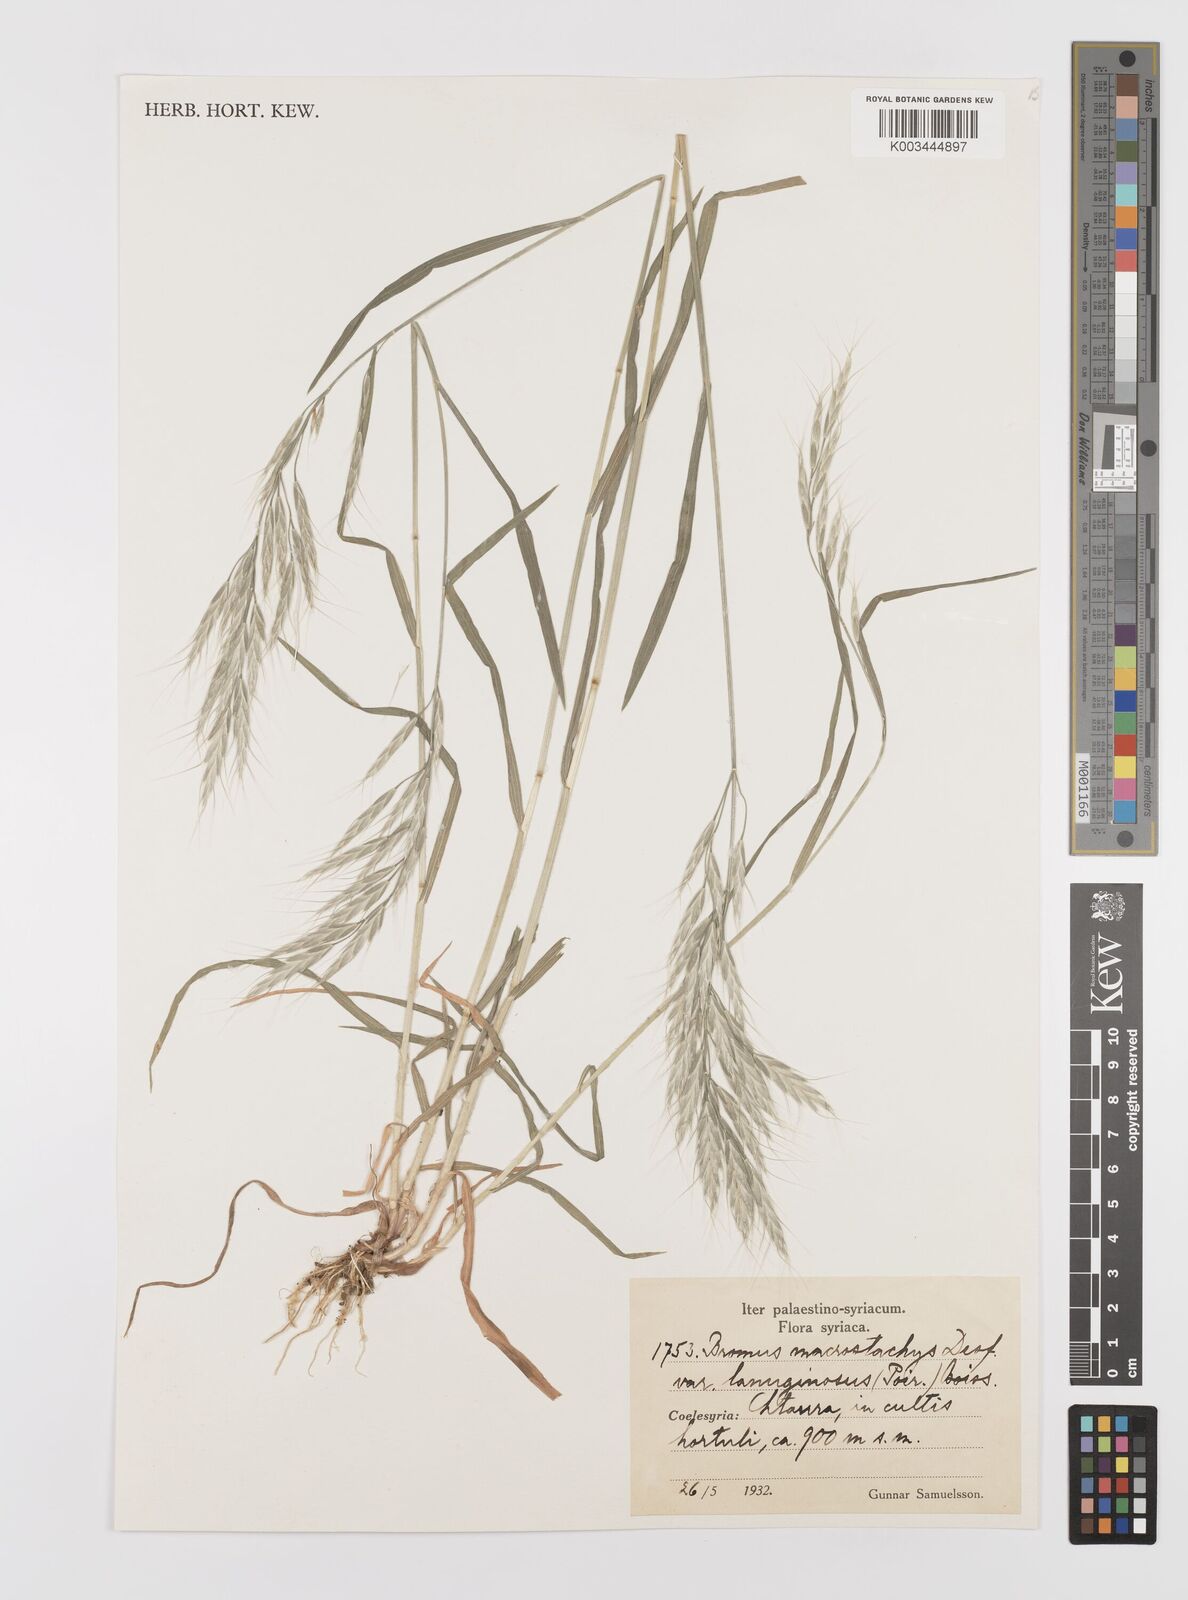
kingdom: Plantae
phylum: Tracheophyta
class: Liliopsida
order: Poales
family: Poaceae
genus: Bromus
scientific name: Bromus lanceolatus
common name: Mediterranean brome
